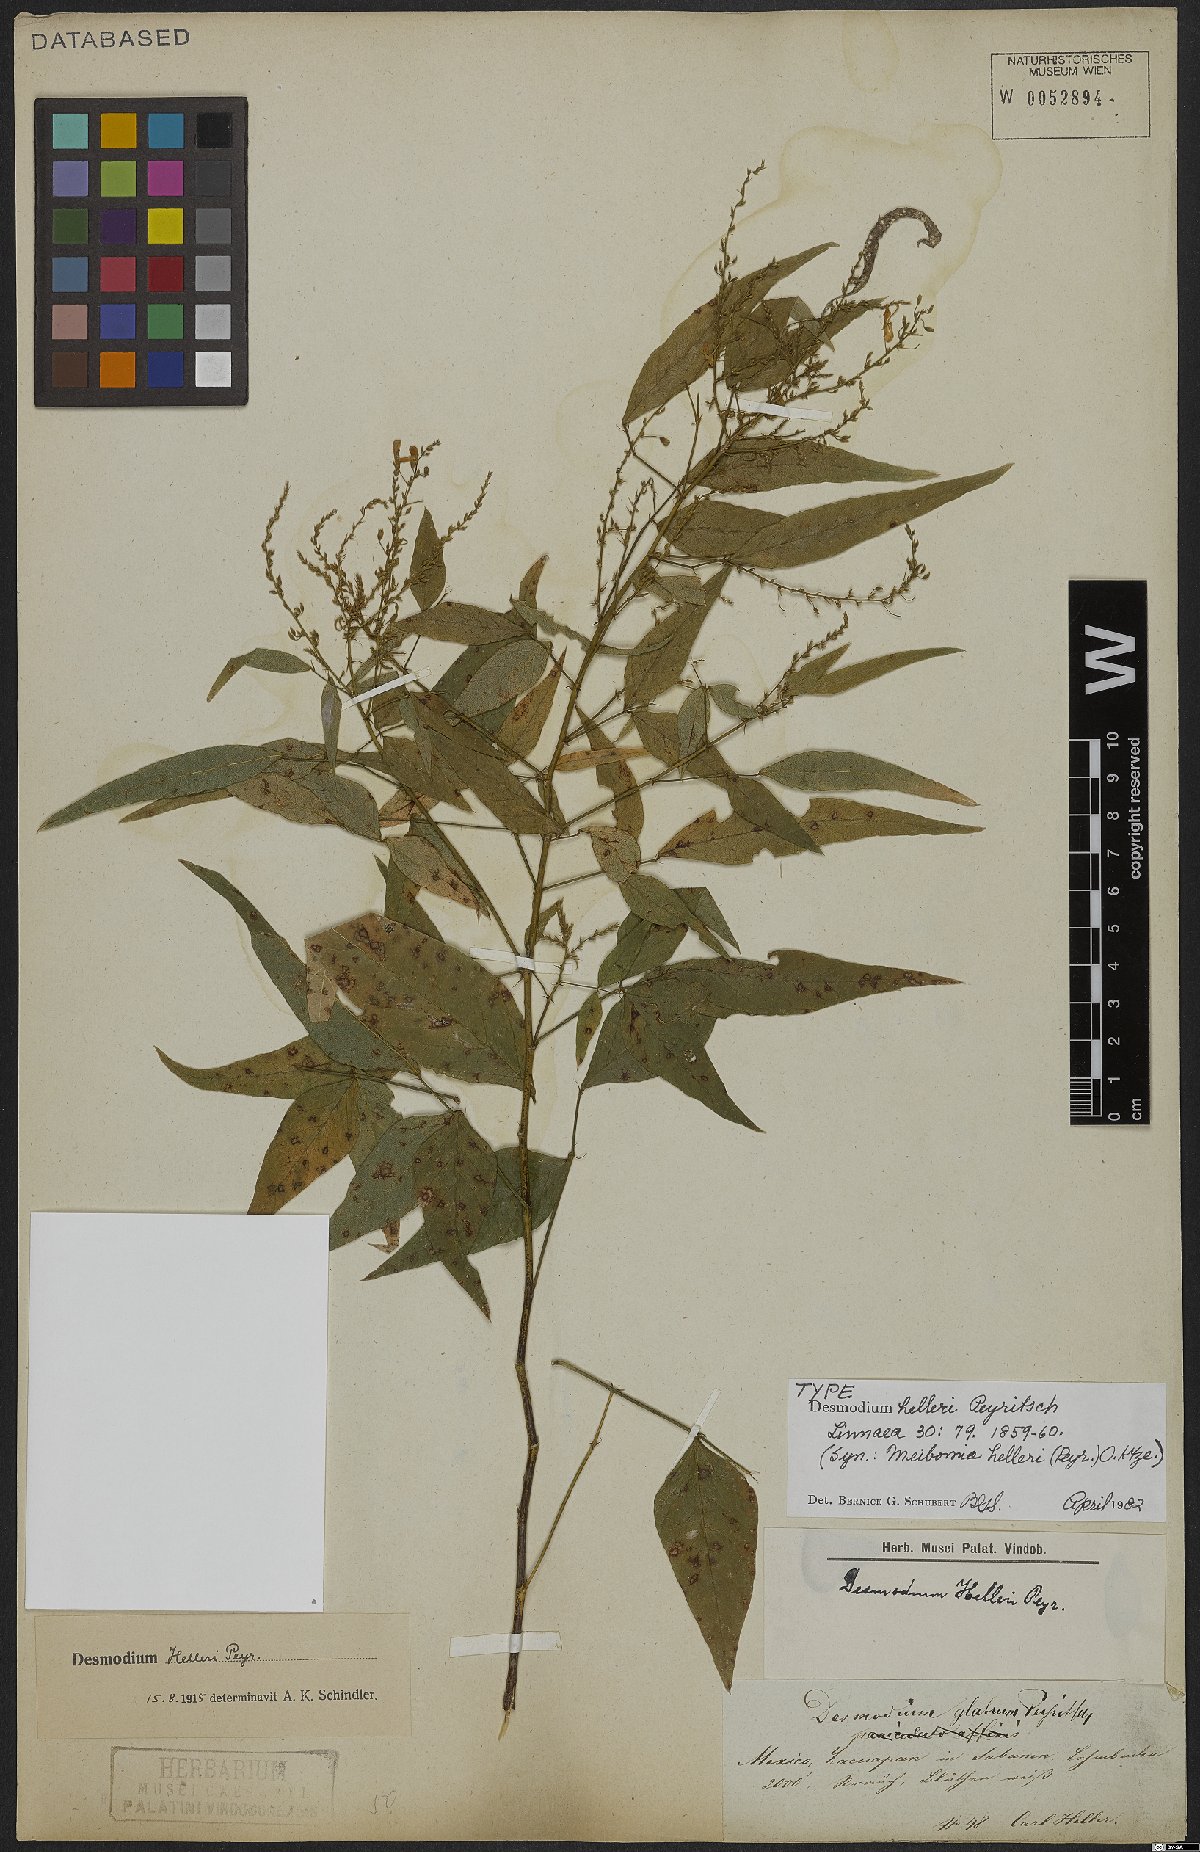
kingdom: Plantae
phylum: Tracheophyta
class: Magnoliopsida
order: Fabales
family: Fabaceae
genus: Desmodium
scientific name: Desmodium helleri
